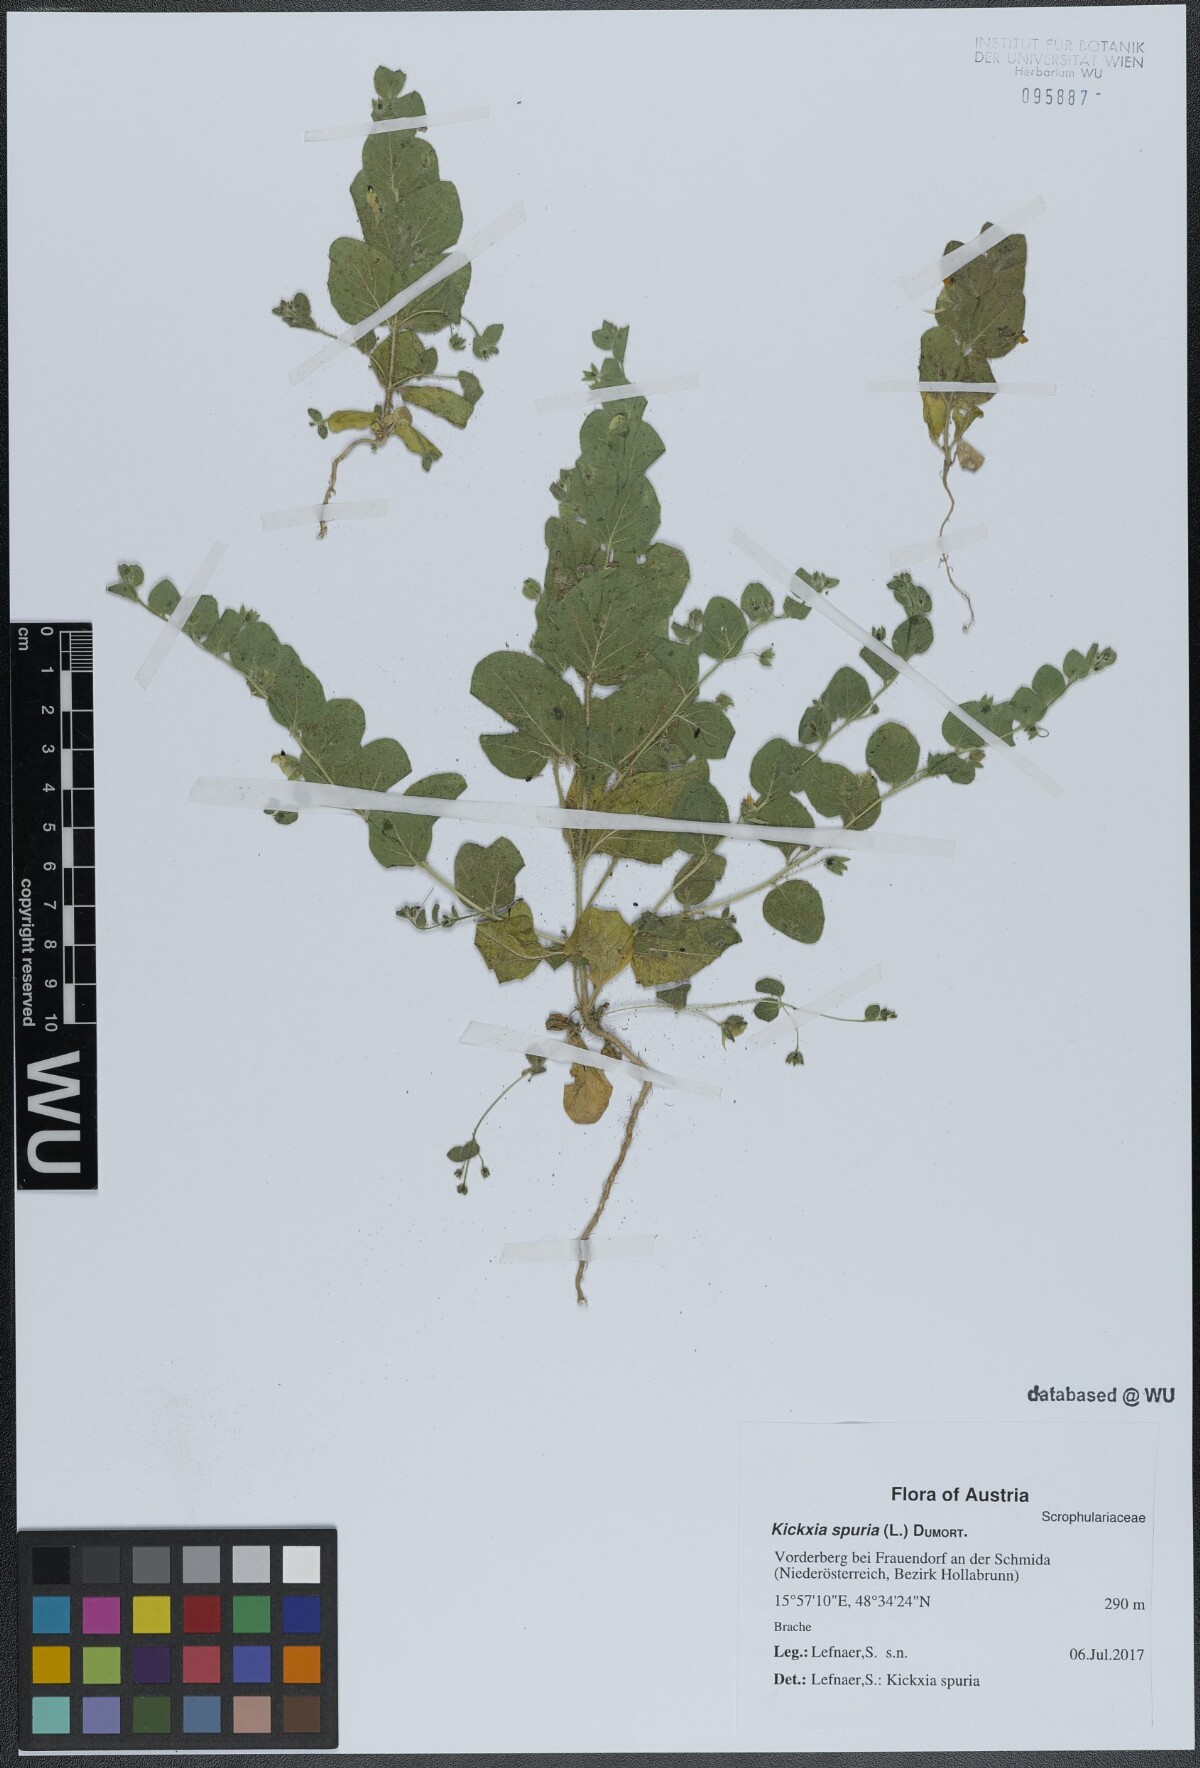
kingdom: Plantae
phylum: Tracheophyta
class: Magnoliopsida
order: Lamiales
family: Plantaginaceae
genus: Kickxia
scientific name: Kickxia spuria
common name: Round-leaved fluellen
